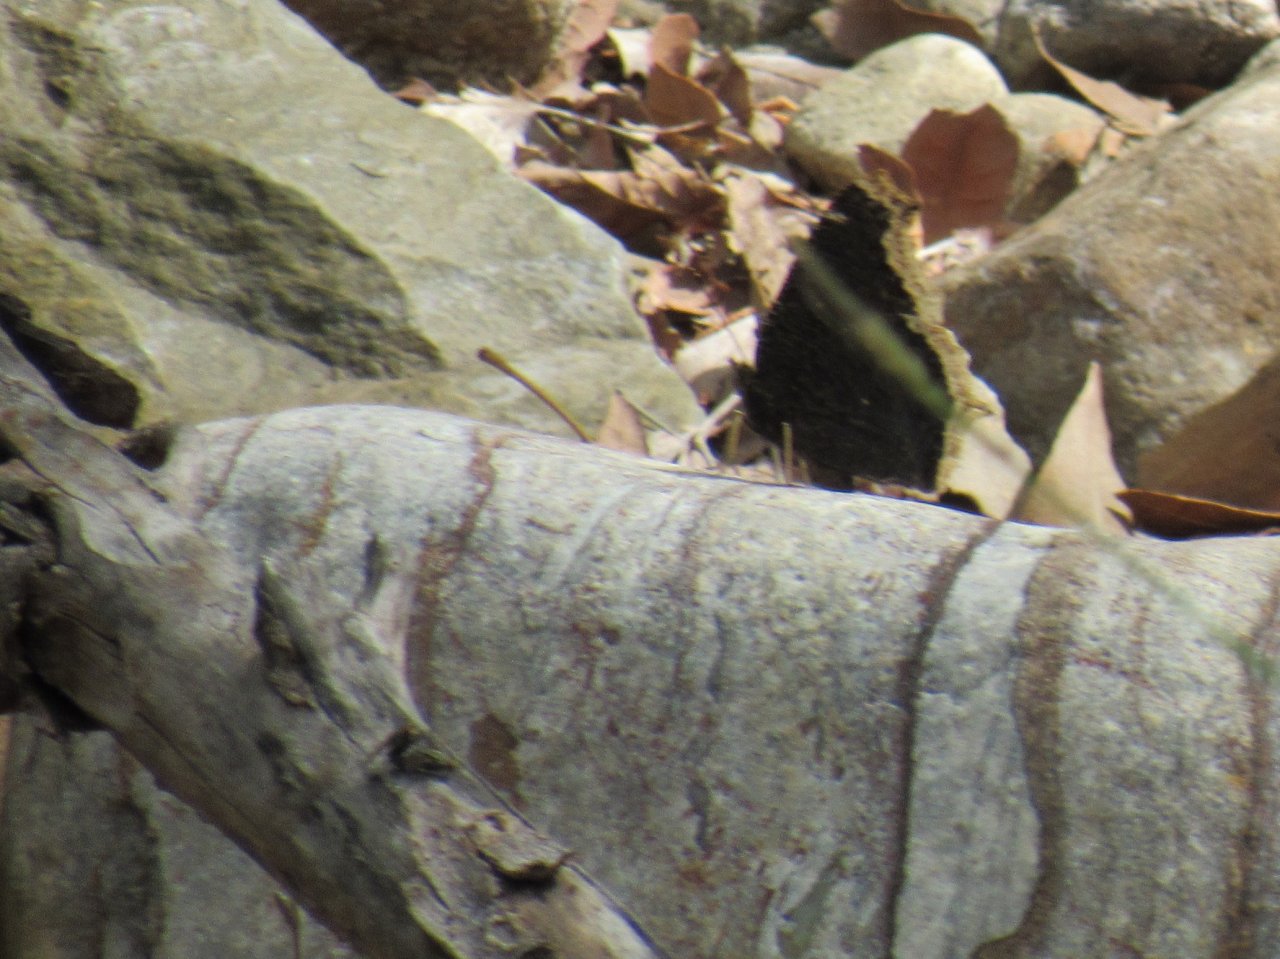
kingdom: Animalia
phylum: Arthropoda
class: Insecta
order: Lepidoptera
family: Nymphalidae
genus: Nymphalis
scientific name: Nymphalis antiopa
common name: Mourning Cloak
